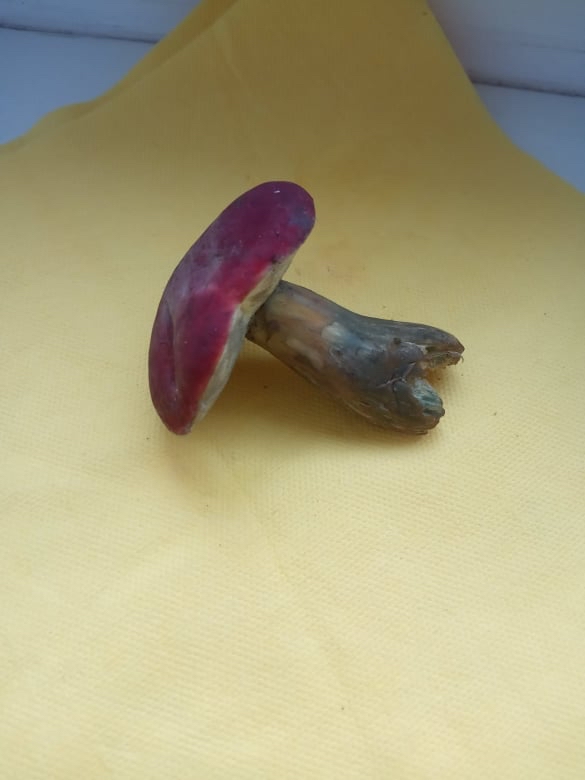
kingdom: Fungi
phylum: Basidiomycota
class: Agaricomycetes
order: Boletales
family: Boletaceae
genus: Hortiboletus
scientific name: Hortiboletus rubellus
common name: blodrød rørhat
